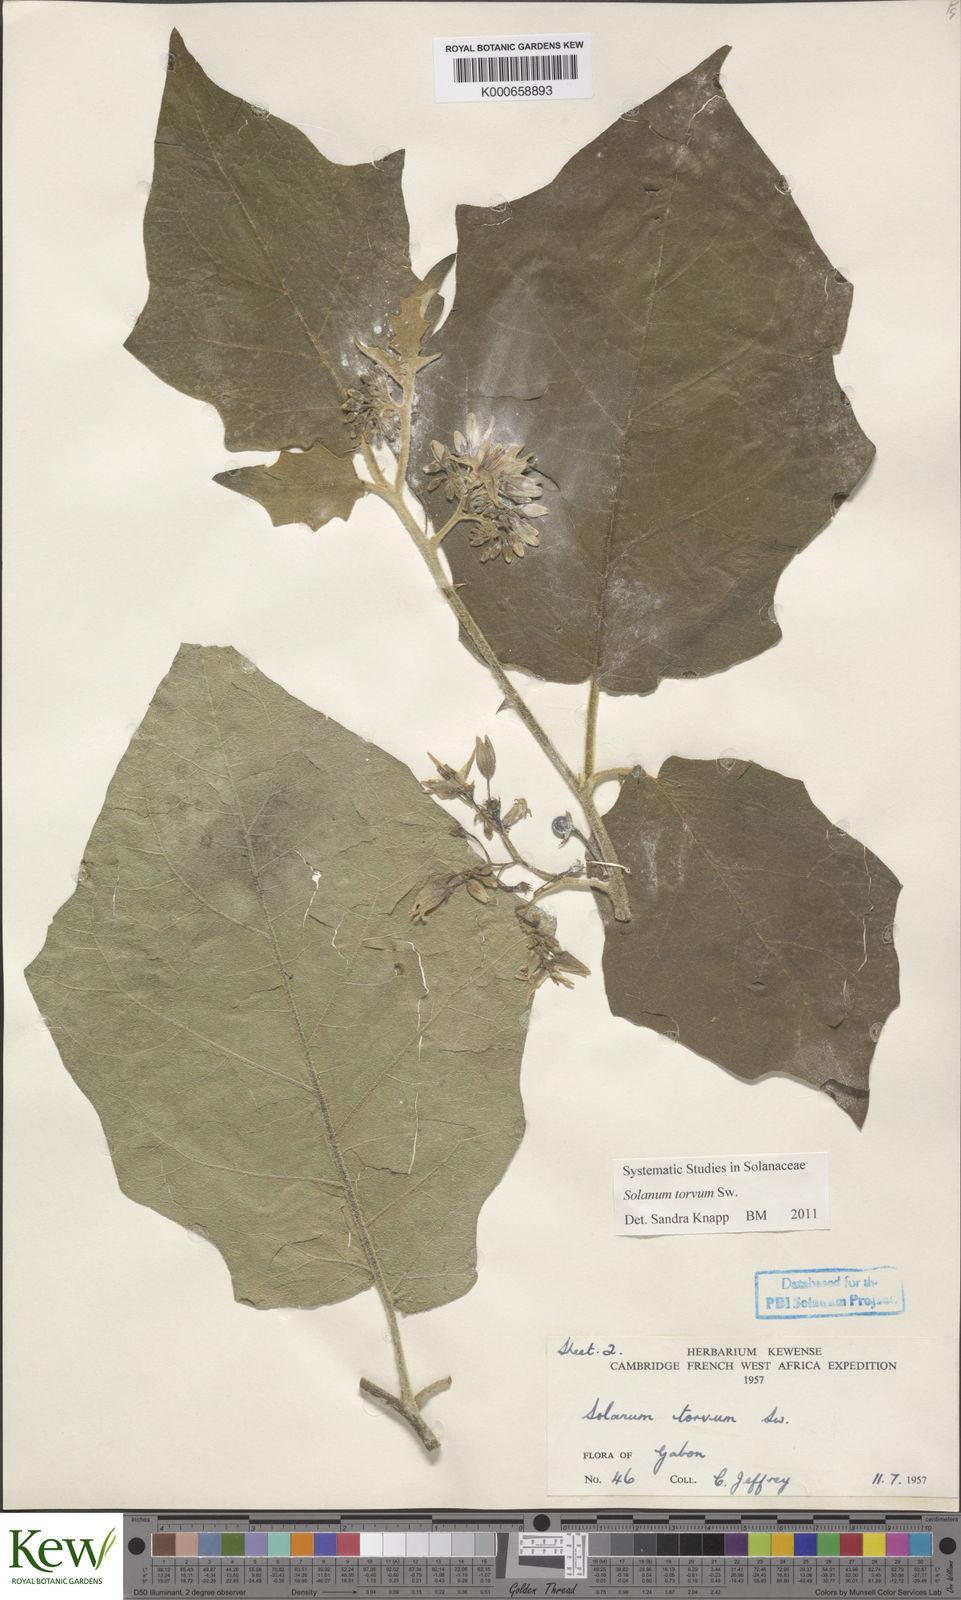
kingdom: Plantae
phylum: Tracheophyta
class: Magnoliopsida
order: Solanales
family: Solanaceae
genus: Solanum
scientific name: Solanum torvum
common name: Turkey berry
